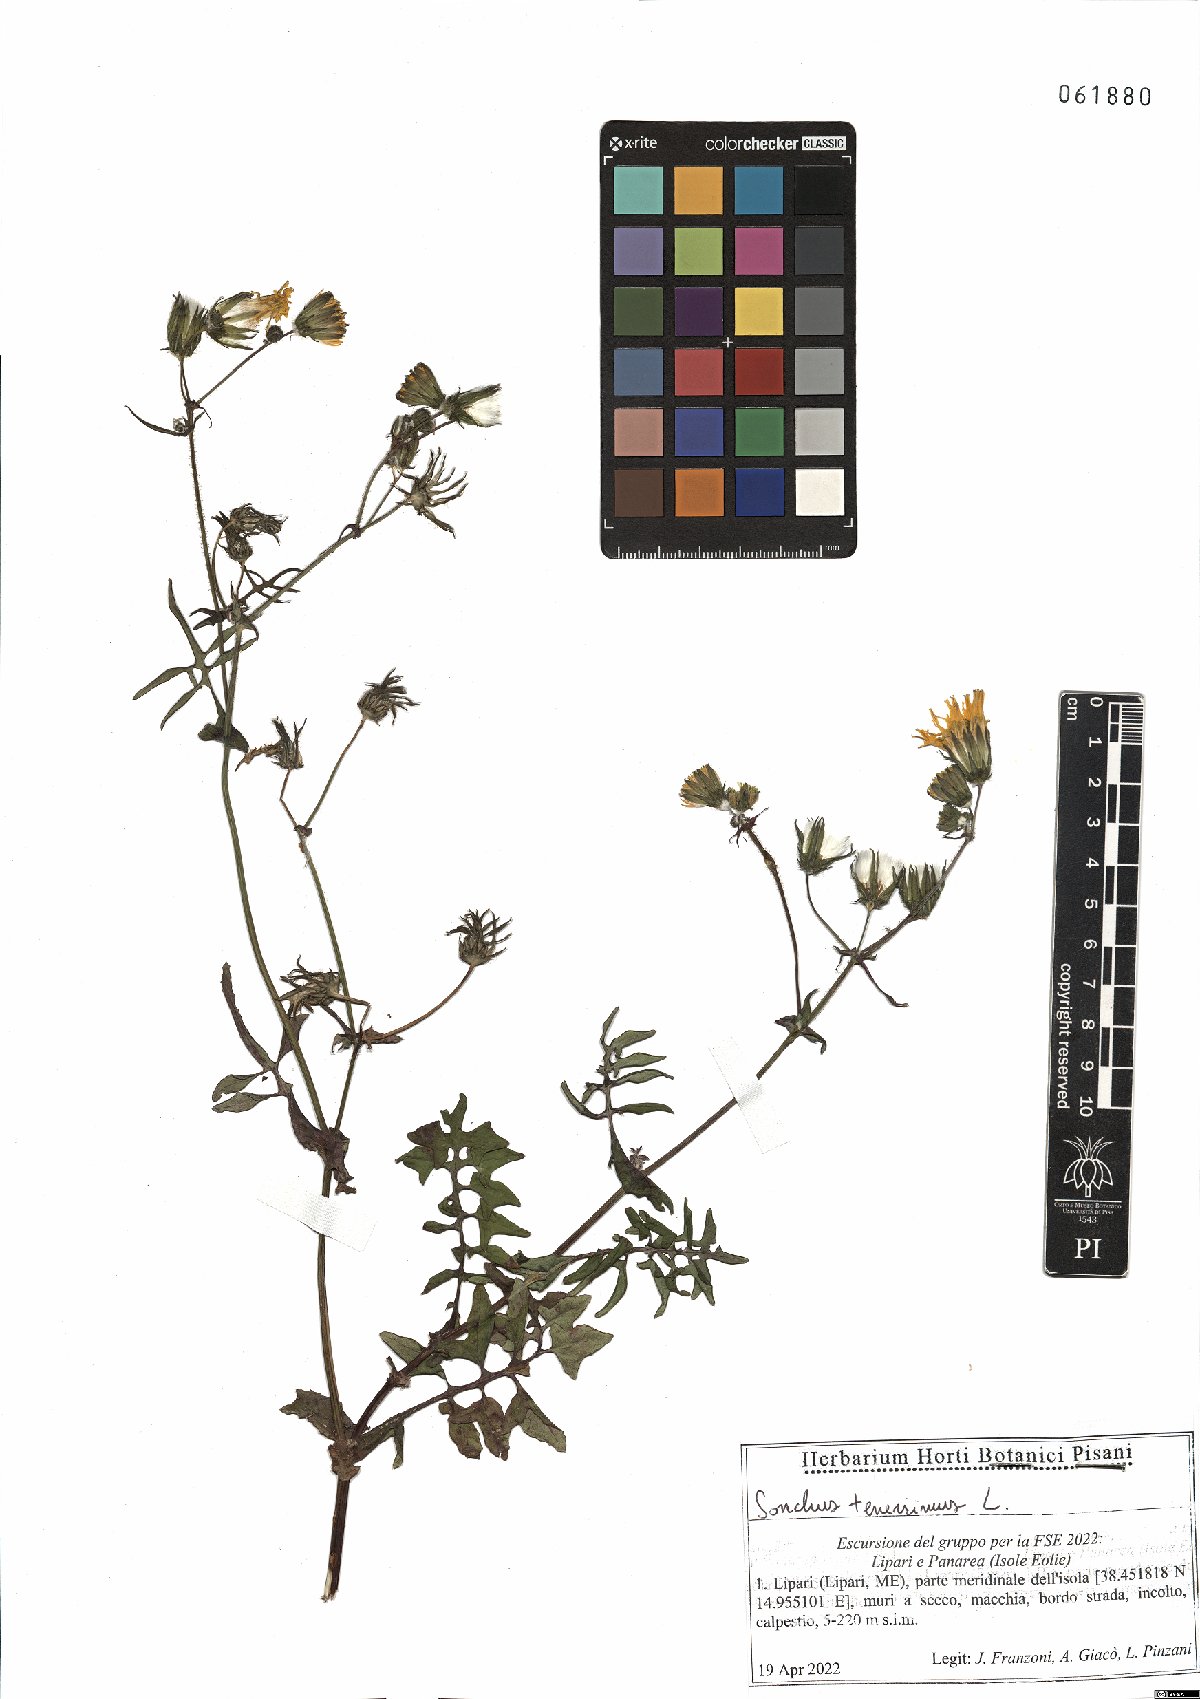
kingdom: Plantae
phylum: Tracheophyta
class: Magnoliopsida
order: Asterales
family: Asteraceae
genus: Sonchus
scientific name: Sonchus tenerrimus
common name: Clammy sowthistle
